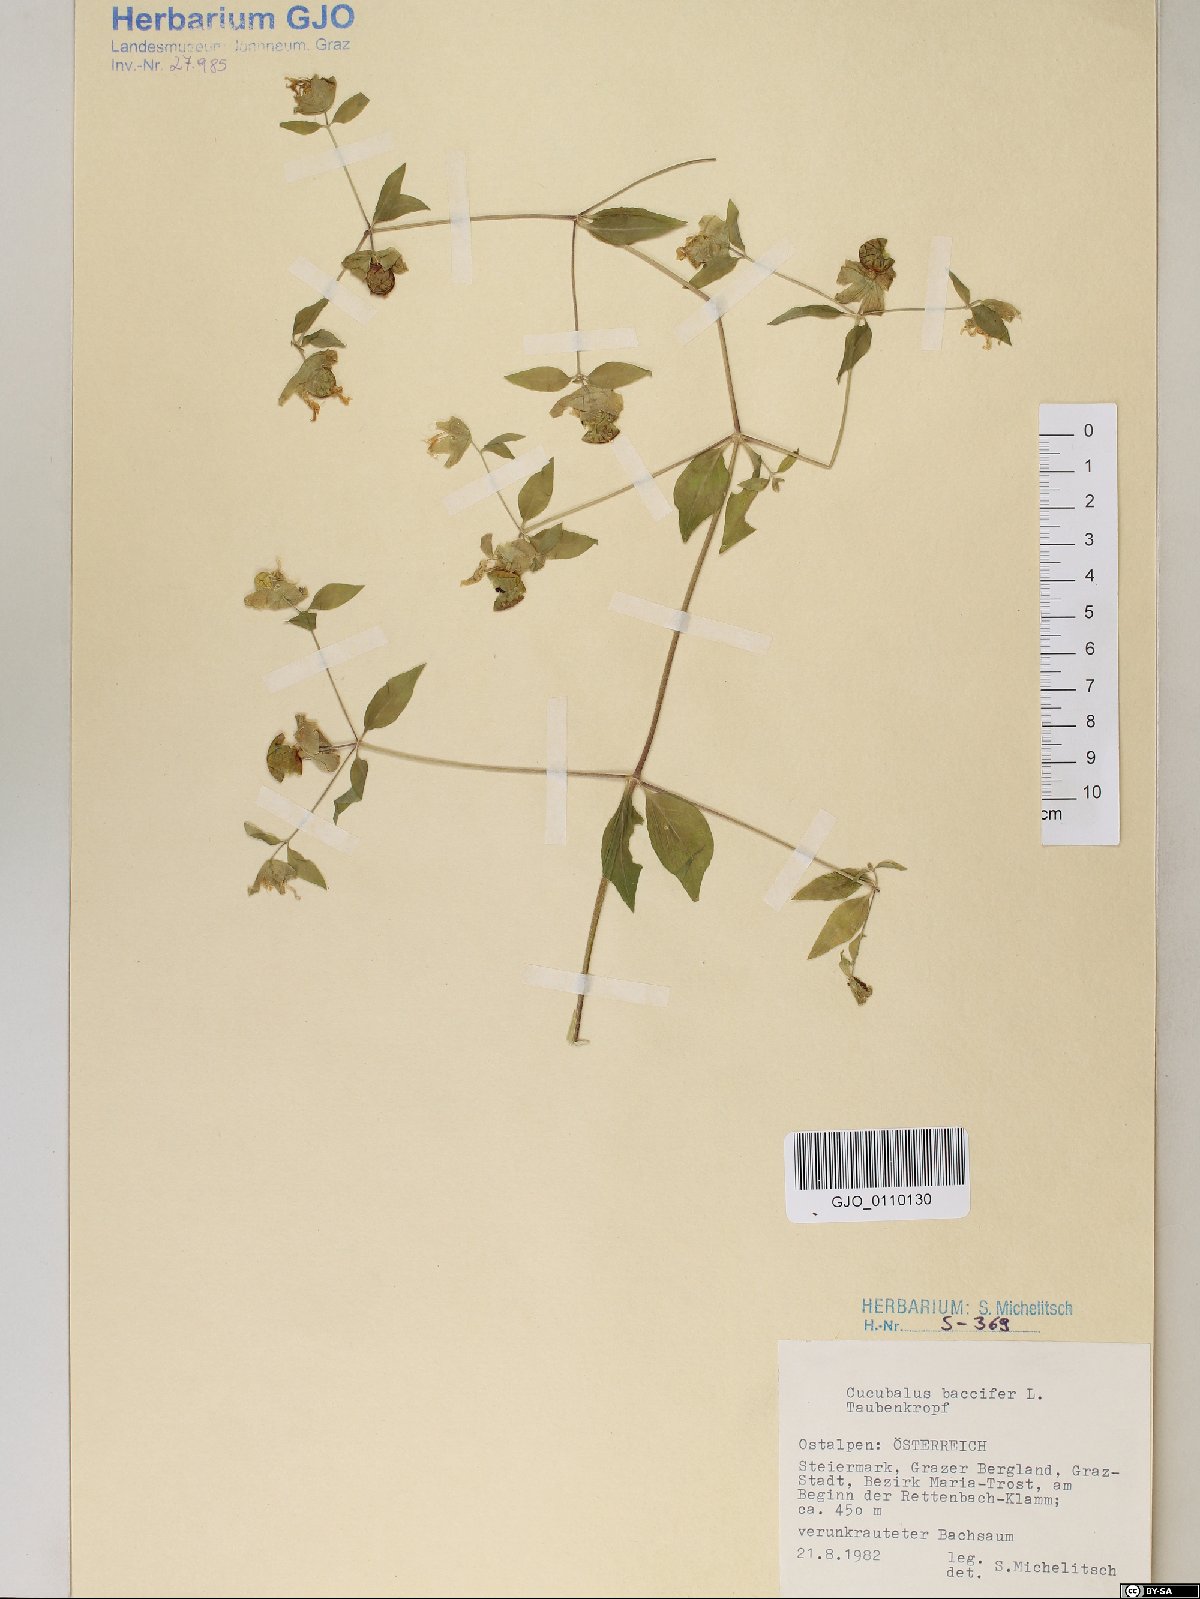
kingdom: Plantae
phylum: Tracheophyta
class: Magnoliopsida
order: Caryophyllales
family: Caryophyllaceae
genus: Silene
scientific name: Silene baccifera
